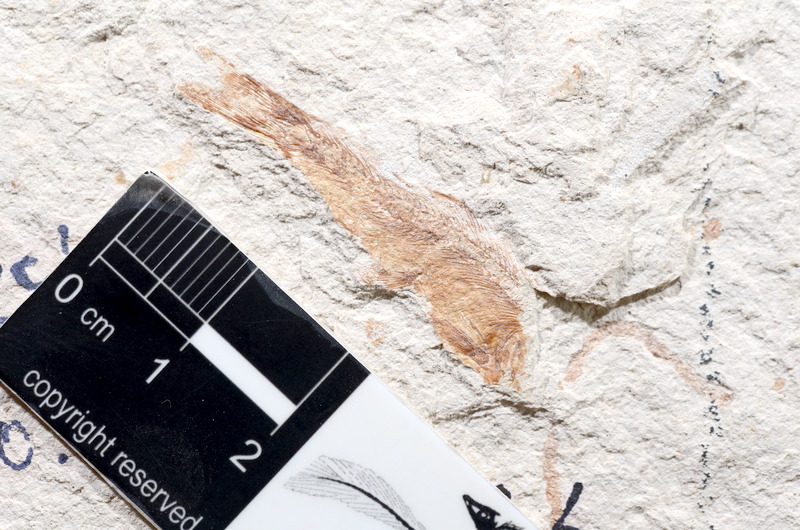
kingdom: Animalia
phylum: Chordata
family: Ascalaboidae
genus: Tharsis
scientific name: Tharsis dubius
